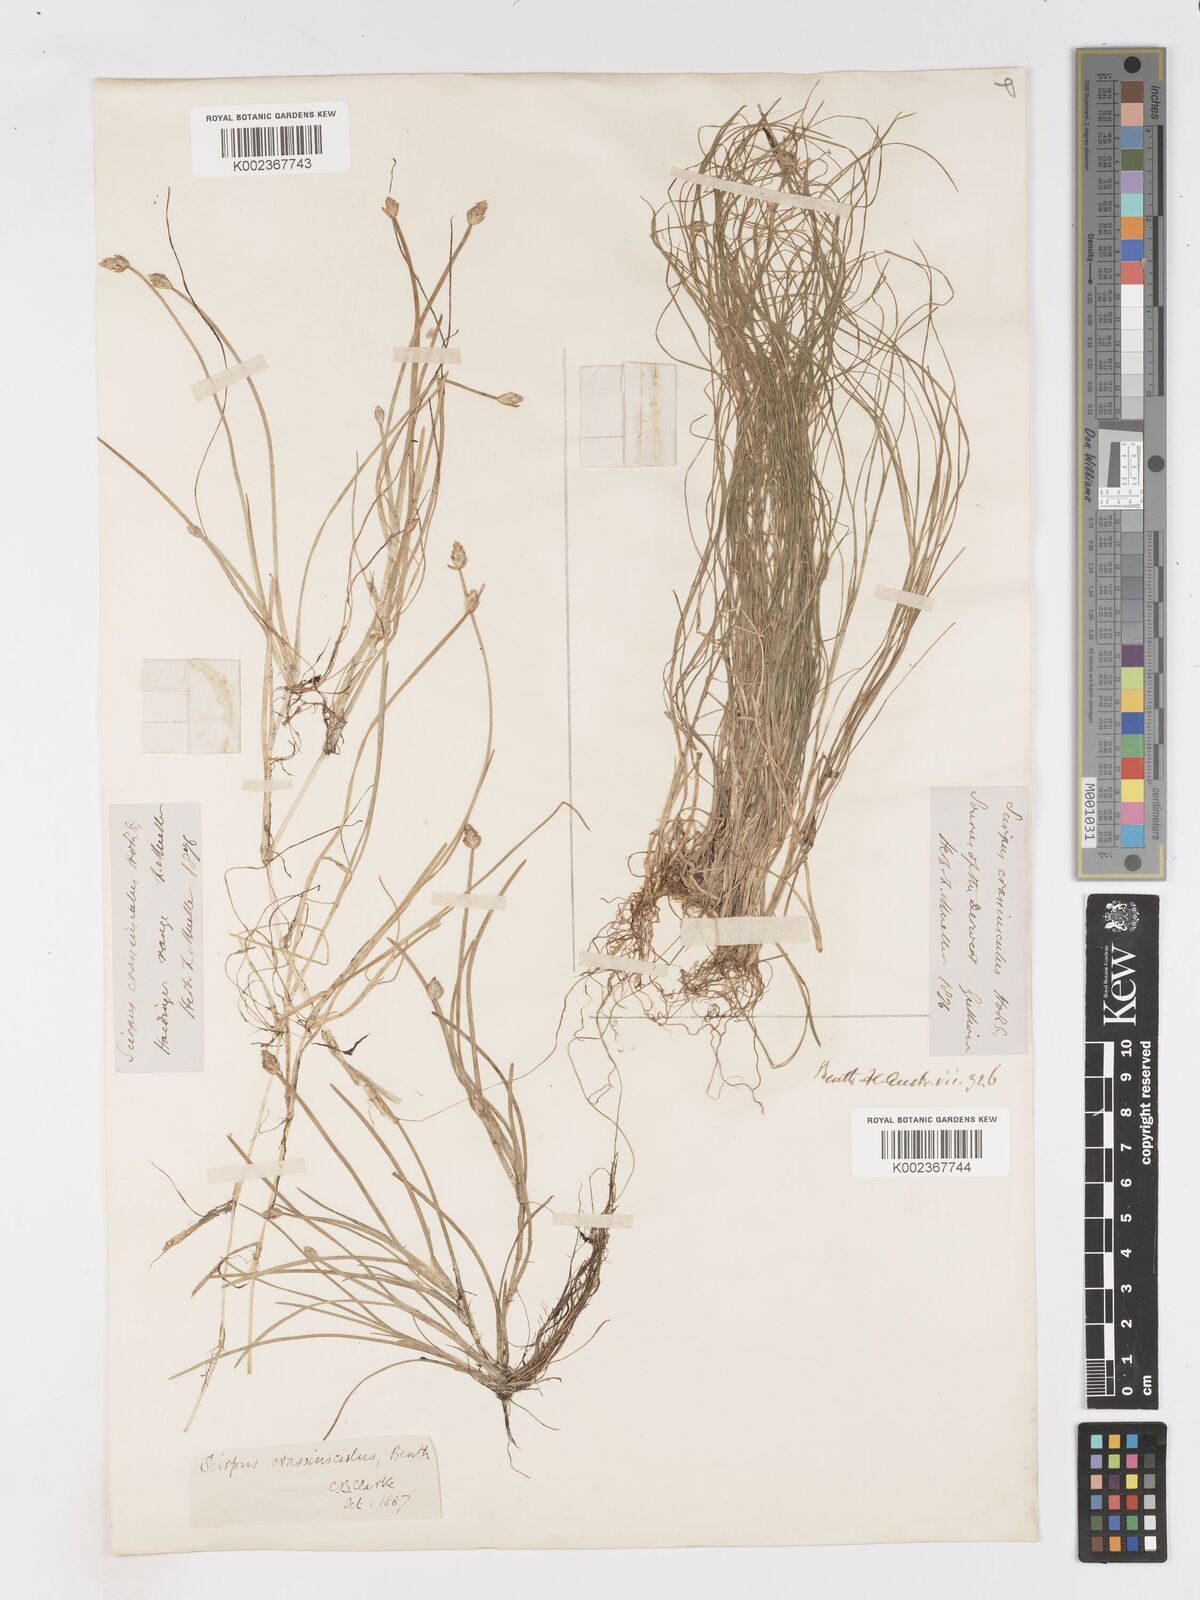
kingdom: Plantae
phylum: Tracheophyta
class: Liliopsida
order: Poales
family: Cyperaceae
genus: Isolepis
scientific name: Isolepis crassiuscula
